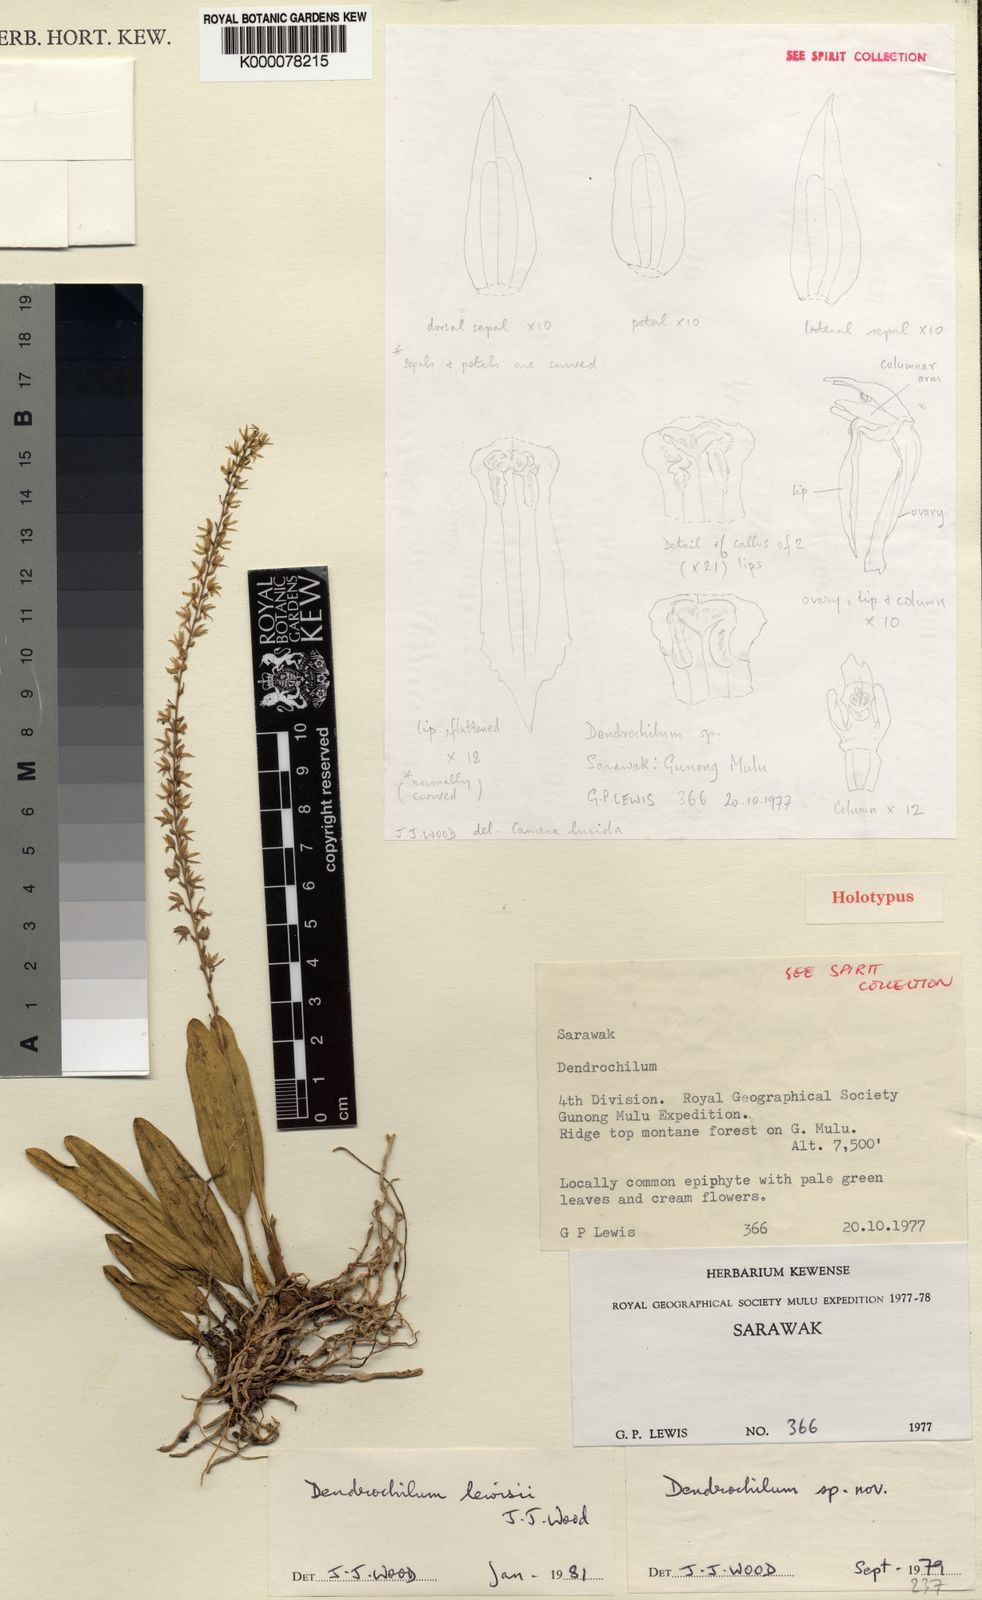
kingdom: Plantae
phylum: Tracheophyta
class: Liliopsida
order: Asparagales
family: Orchidaceae
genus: Coelogyne
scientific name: Coelogyne lewisii
